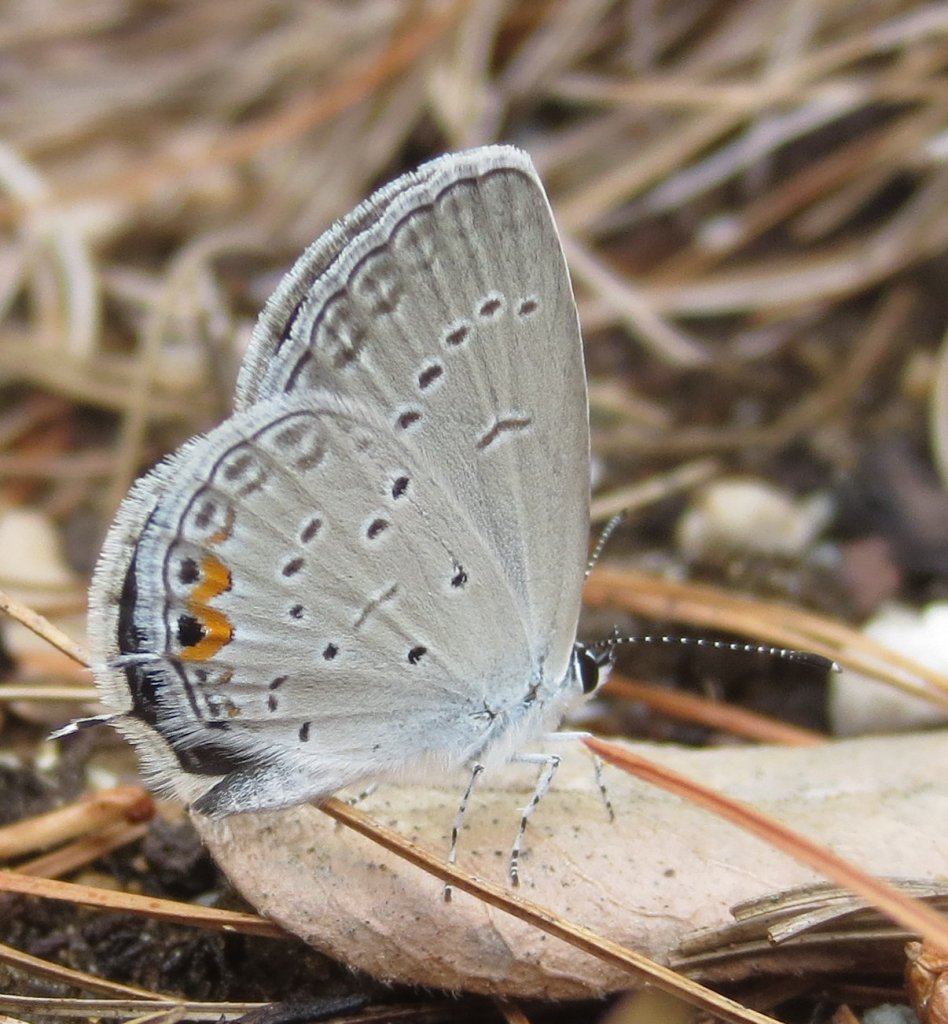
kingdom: Animalia
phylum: Arthropoda
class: Insecta
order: Lepidoptera
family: Lycaenidae
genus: Elkalyce
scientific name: Elkalyce comyntas
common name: Eastern Tailed-Blue
